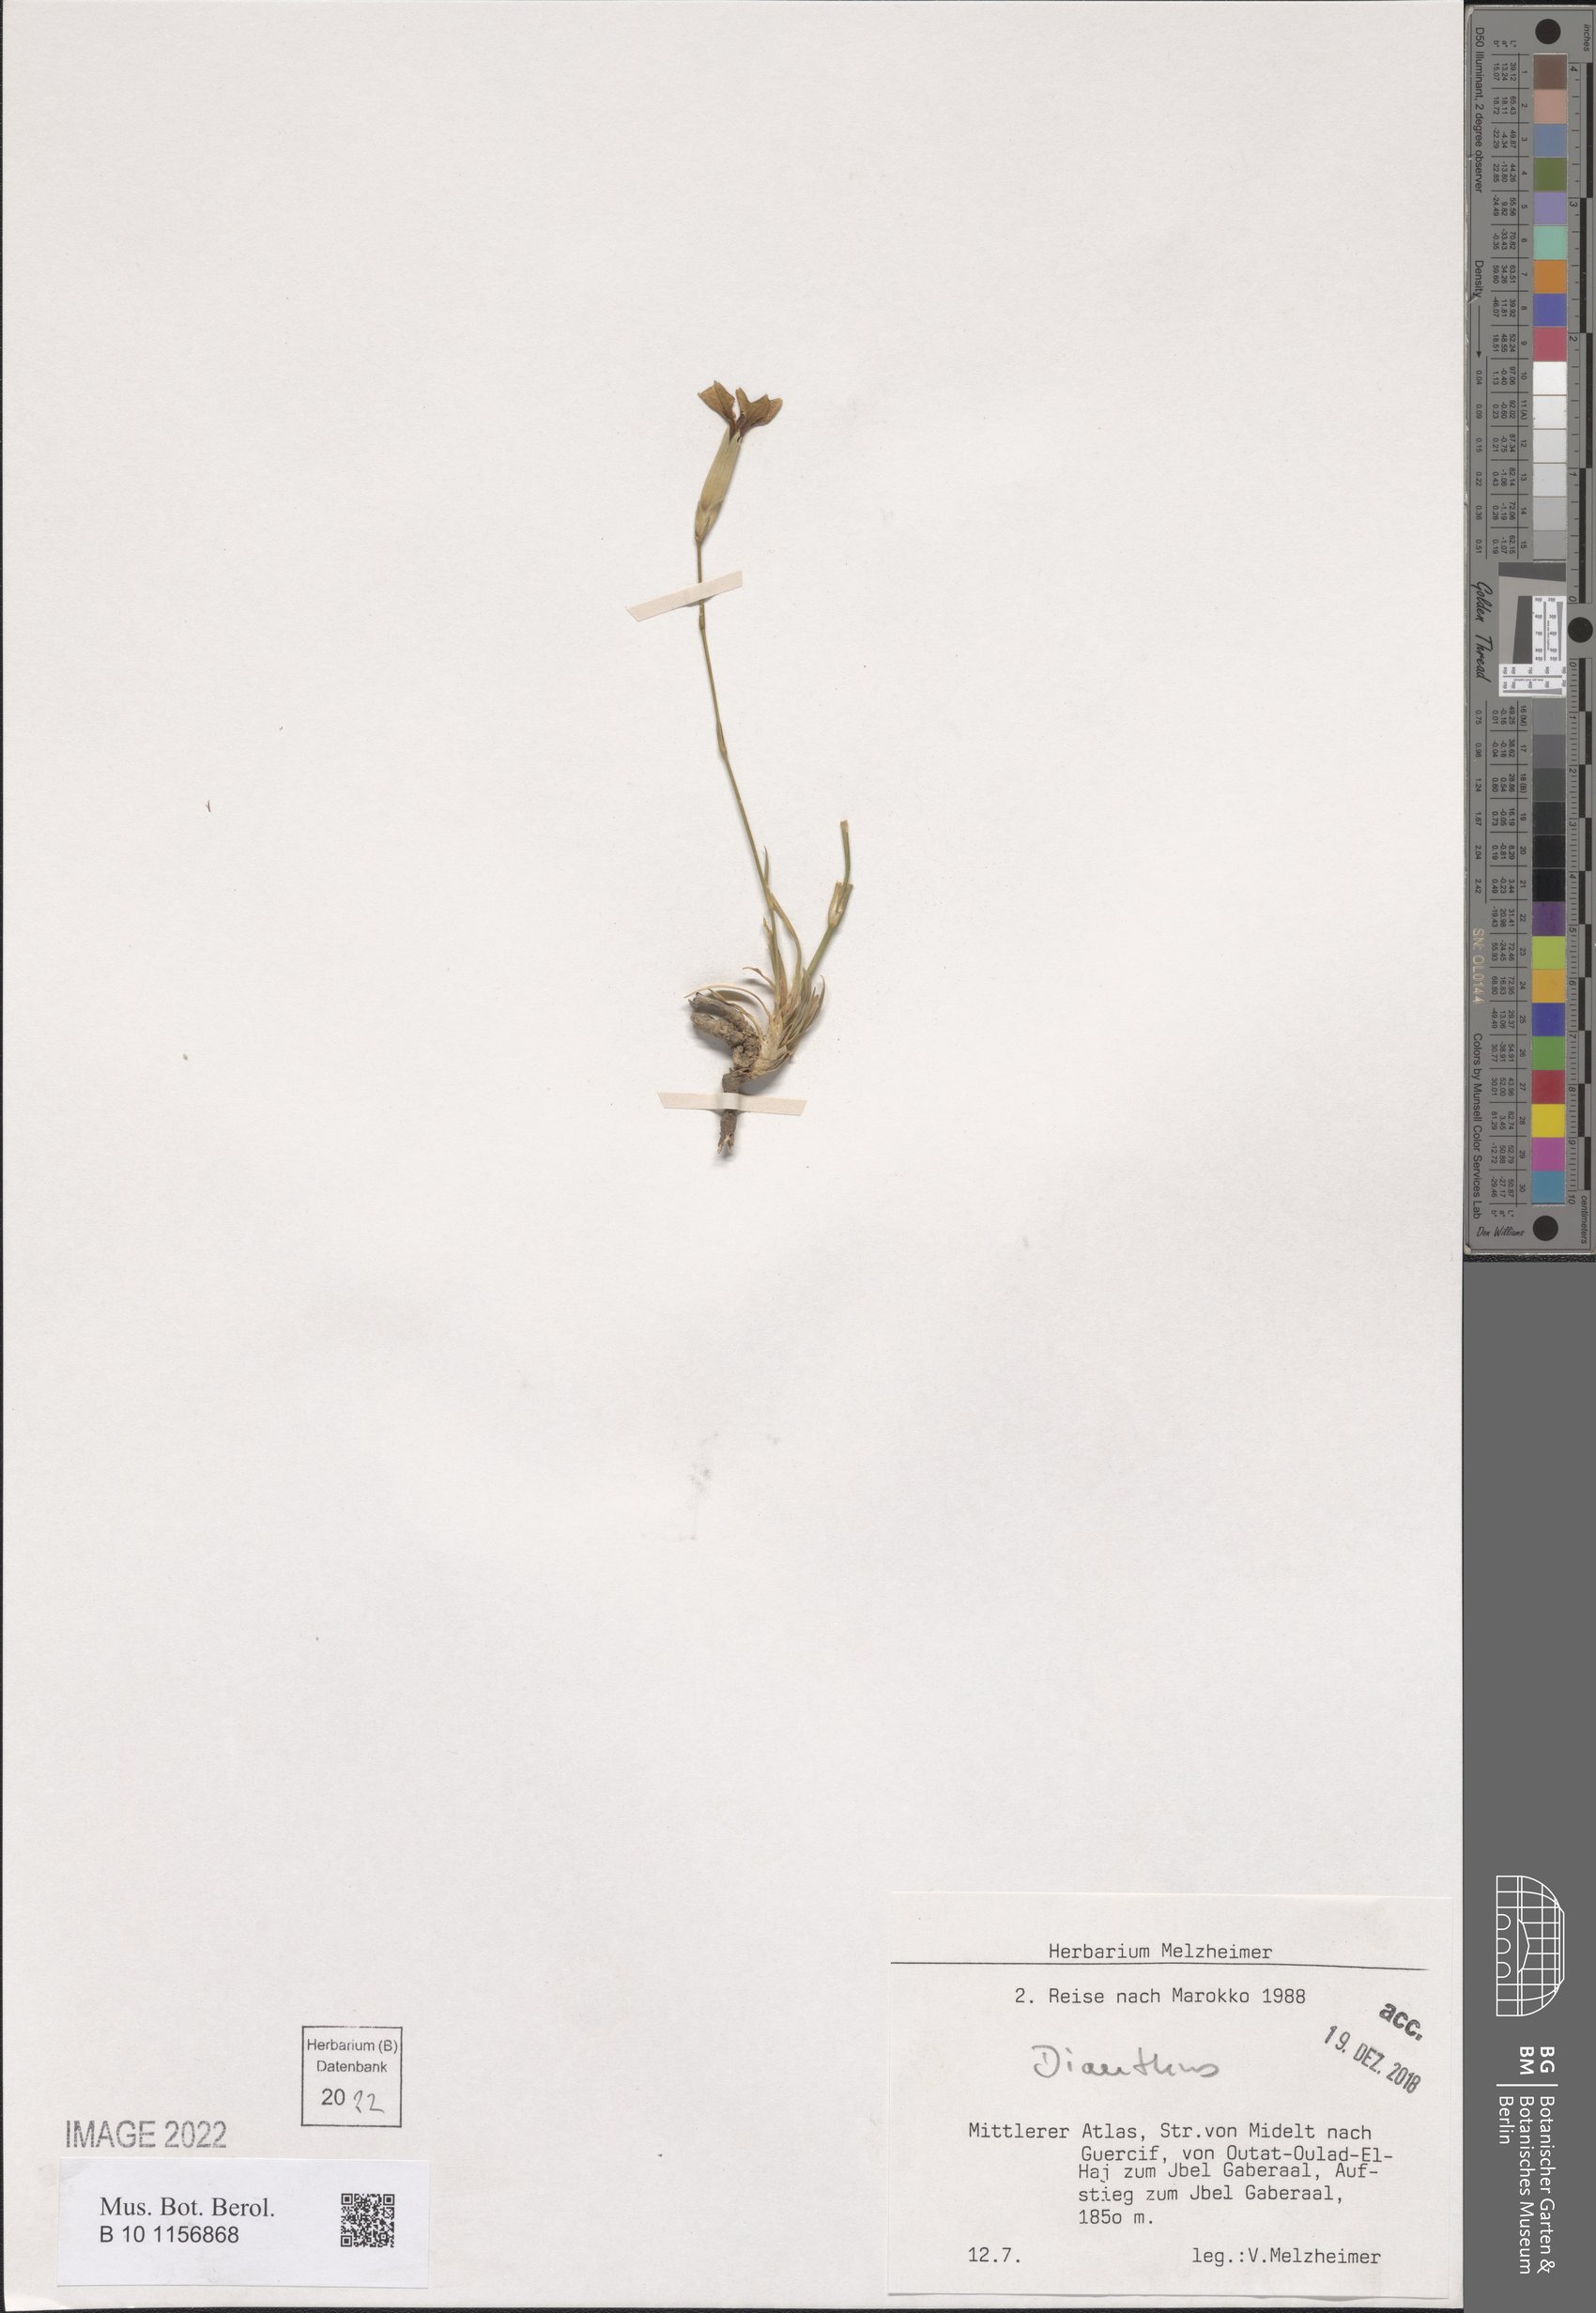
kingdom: Plantae
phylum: Tracheophyta
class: Magnoliopsida
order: Caryophyllales
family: Caryophyllaceae
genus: Dianthus
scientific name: Dianthus
